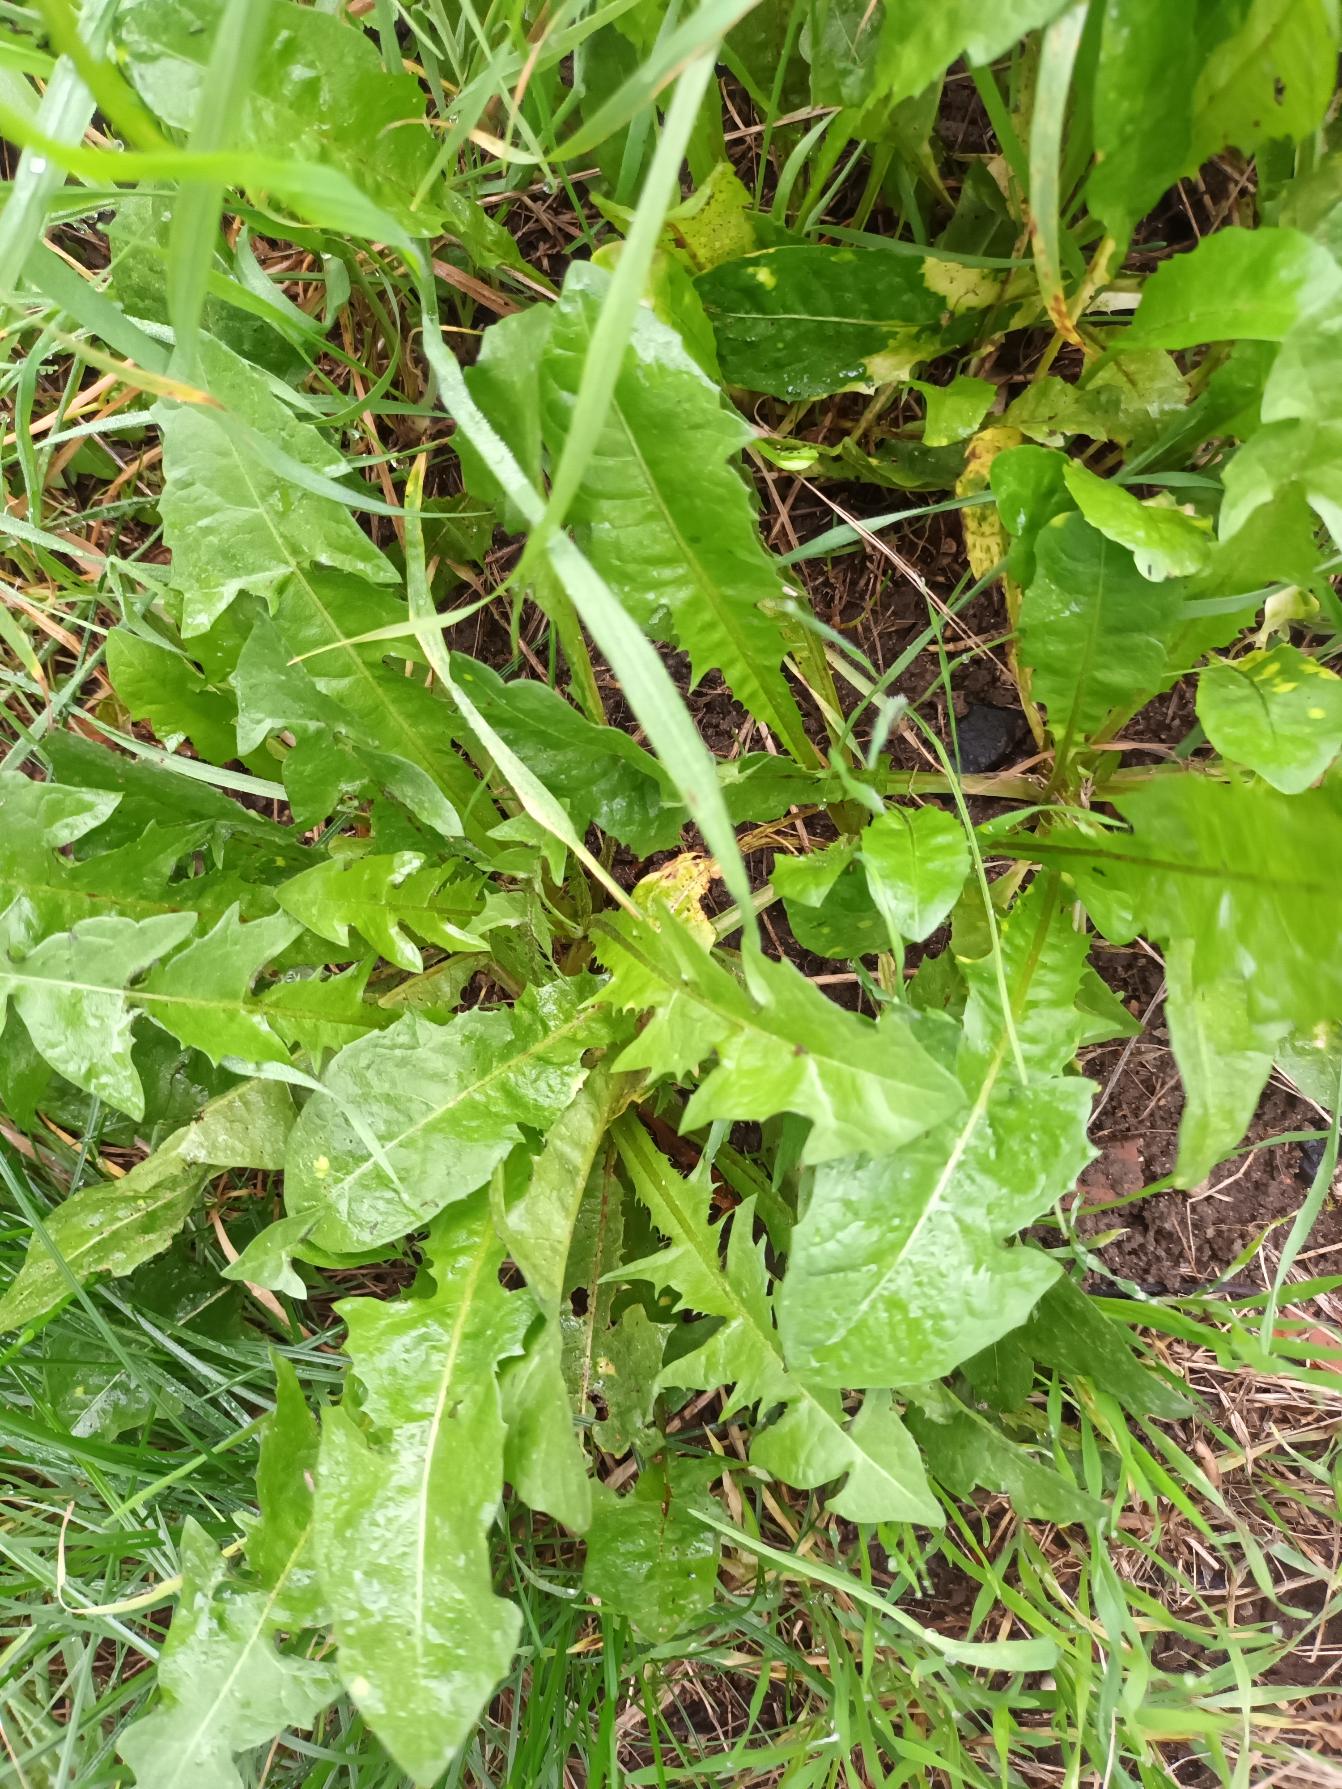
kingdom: Plantae
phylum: Tracheophyta
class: Magnoliopsida
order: Asterales
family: Asteraceae
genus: Taraxacum
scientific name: Taraxacum
